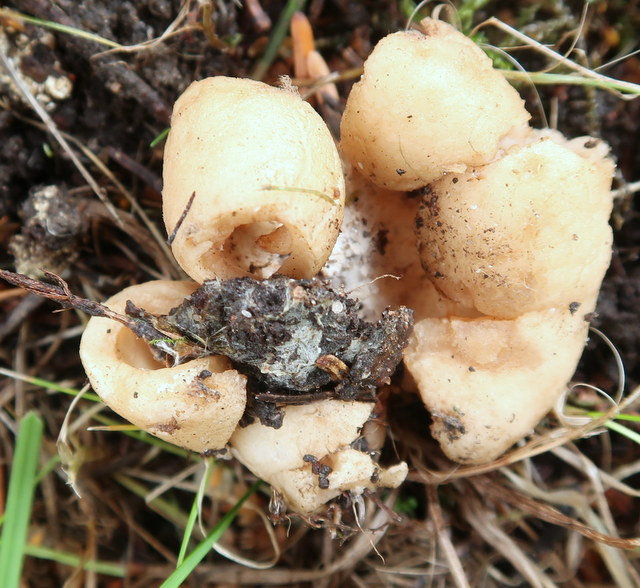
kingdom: Fungi
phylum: Basidiomycota
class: Agaricomycetes
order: Geastrales
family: Geastraceae
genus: Geastrum
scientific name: Geastrum
